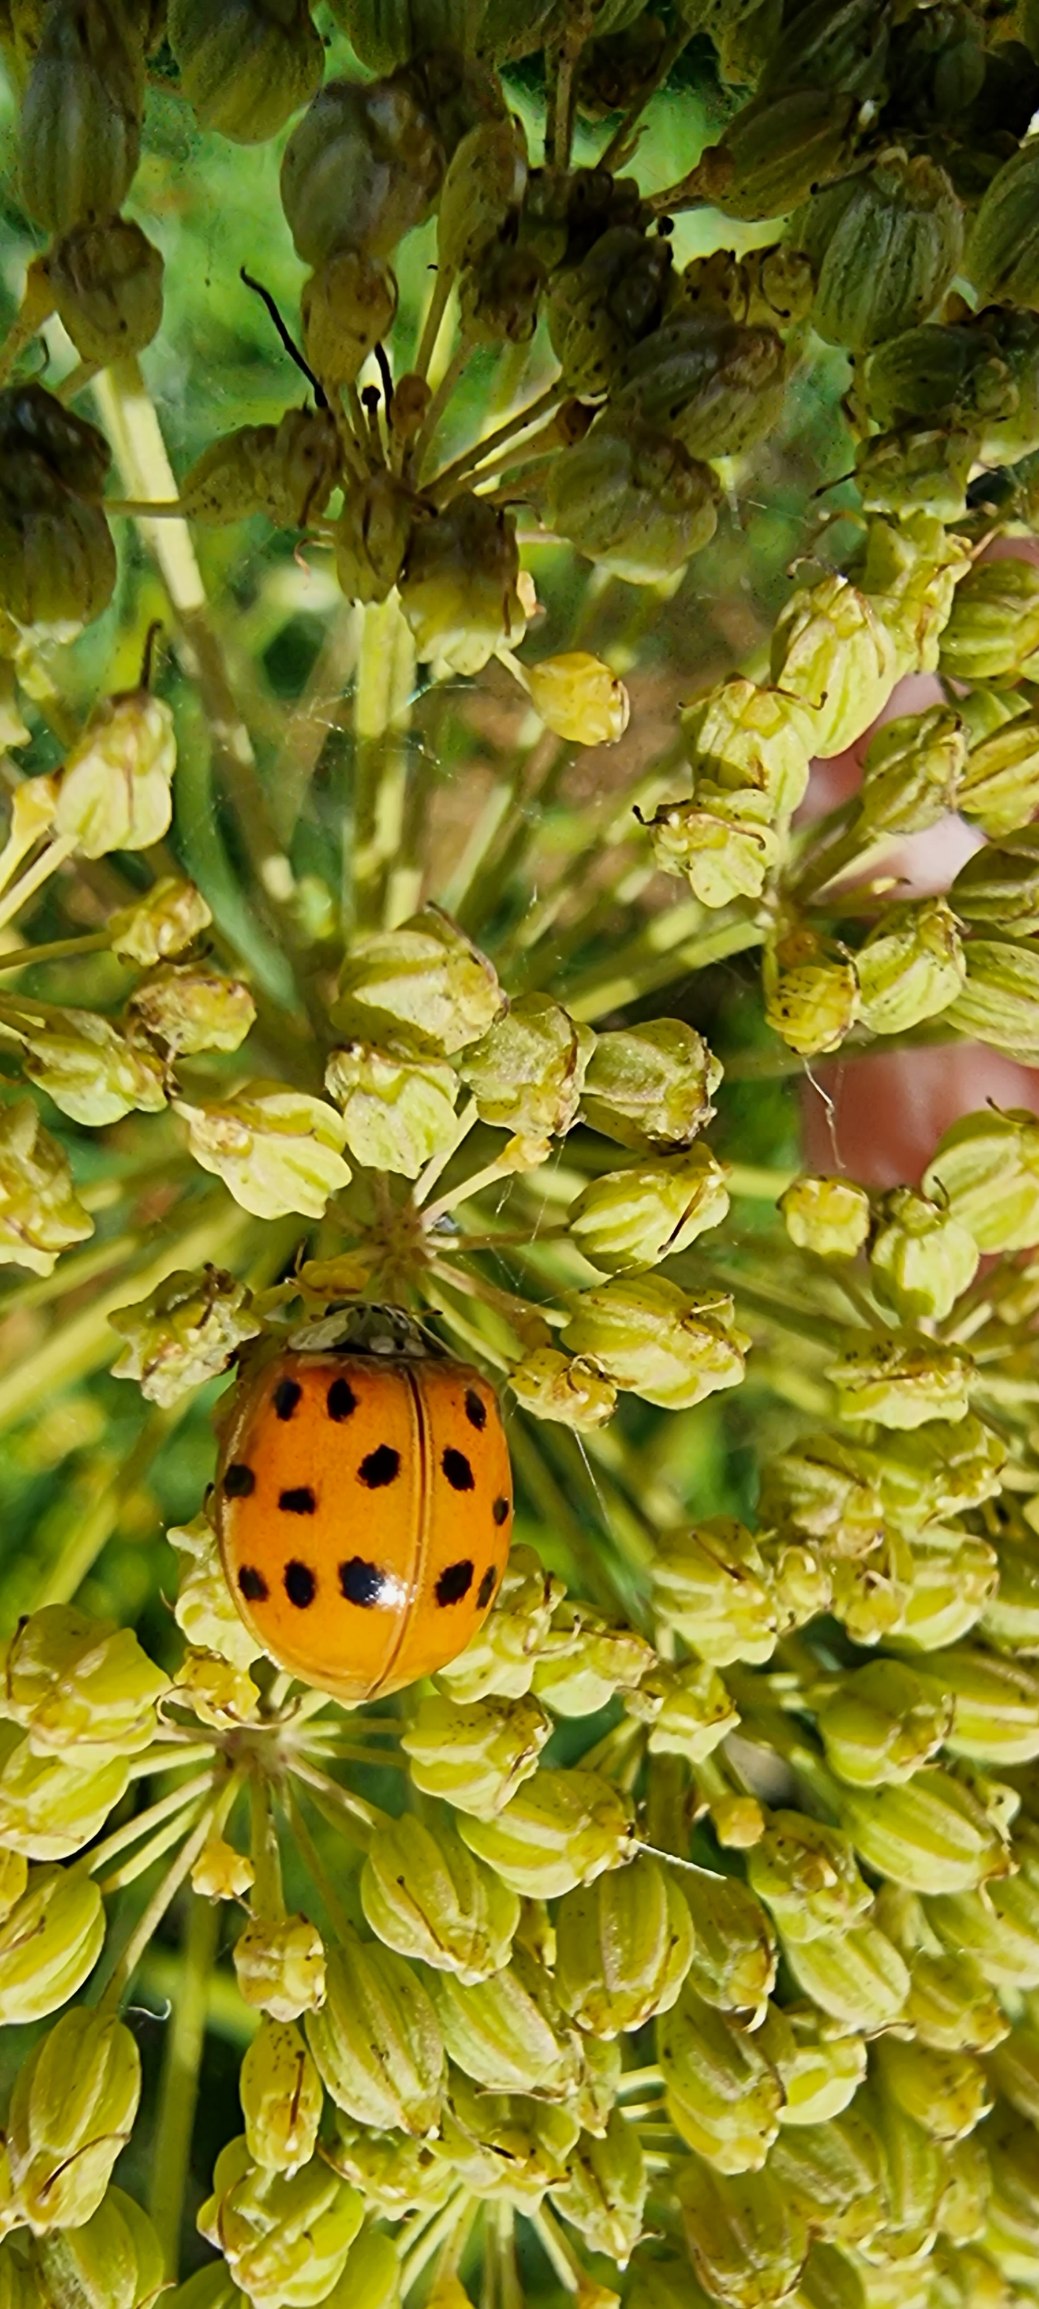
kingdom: Animalia
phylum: Arthropoda
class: Insecta
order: Coleoptera
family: Coccinellidae
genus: Harmonia
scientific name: Harmonia axyridis
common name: Harlekinmariehøne
